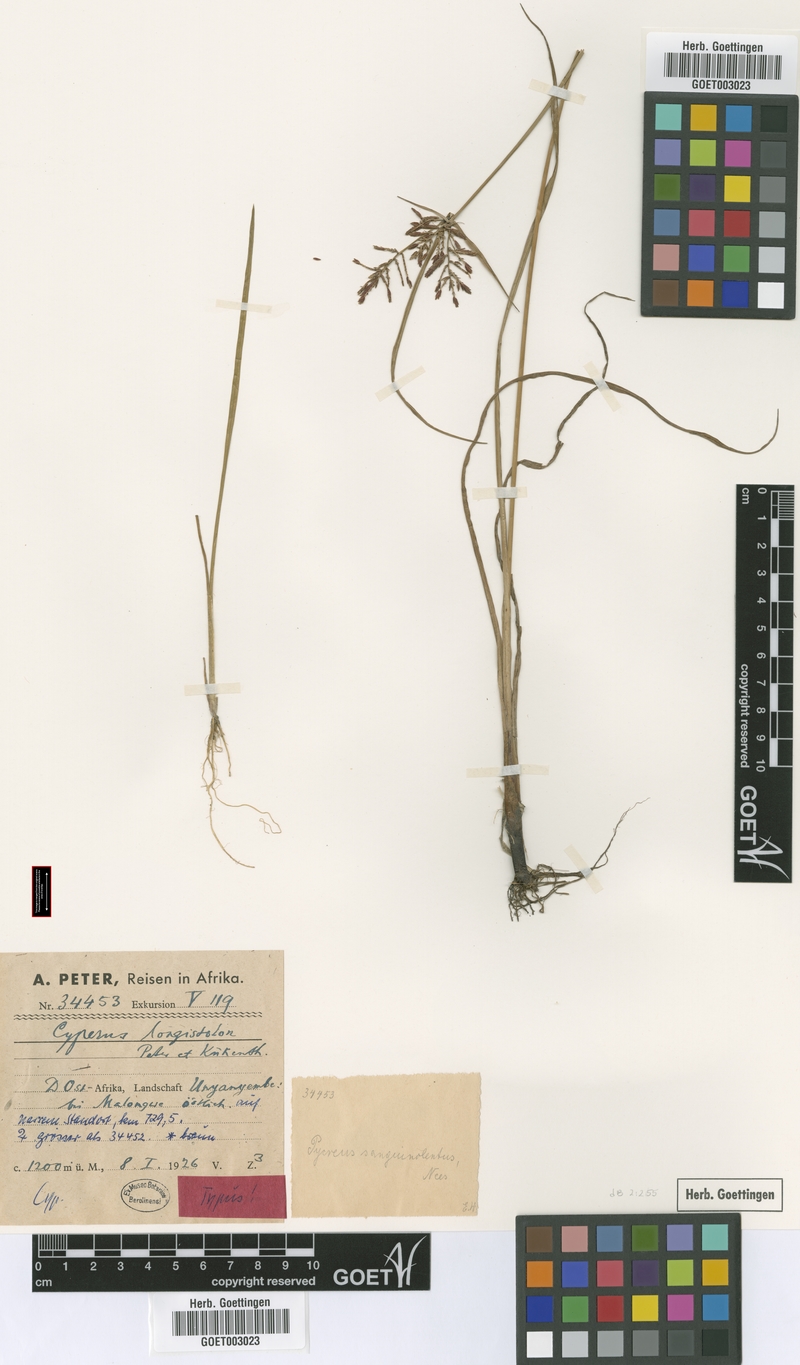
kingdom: Plantae
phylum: Tracheophyta
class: Liliopsida
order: Poales
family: Cyperaceae
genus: Cyperus
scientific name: Cyperus chrysanthus
